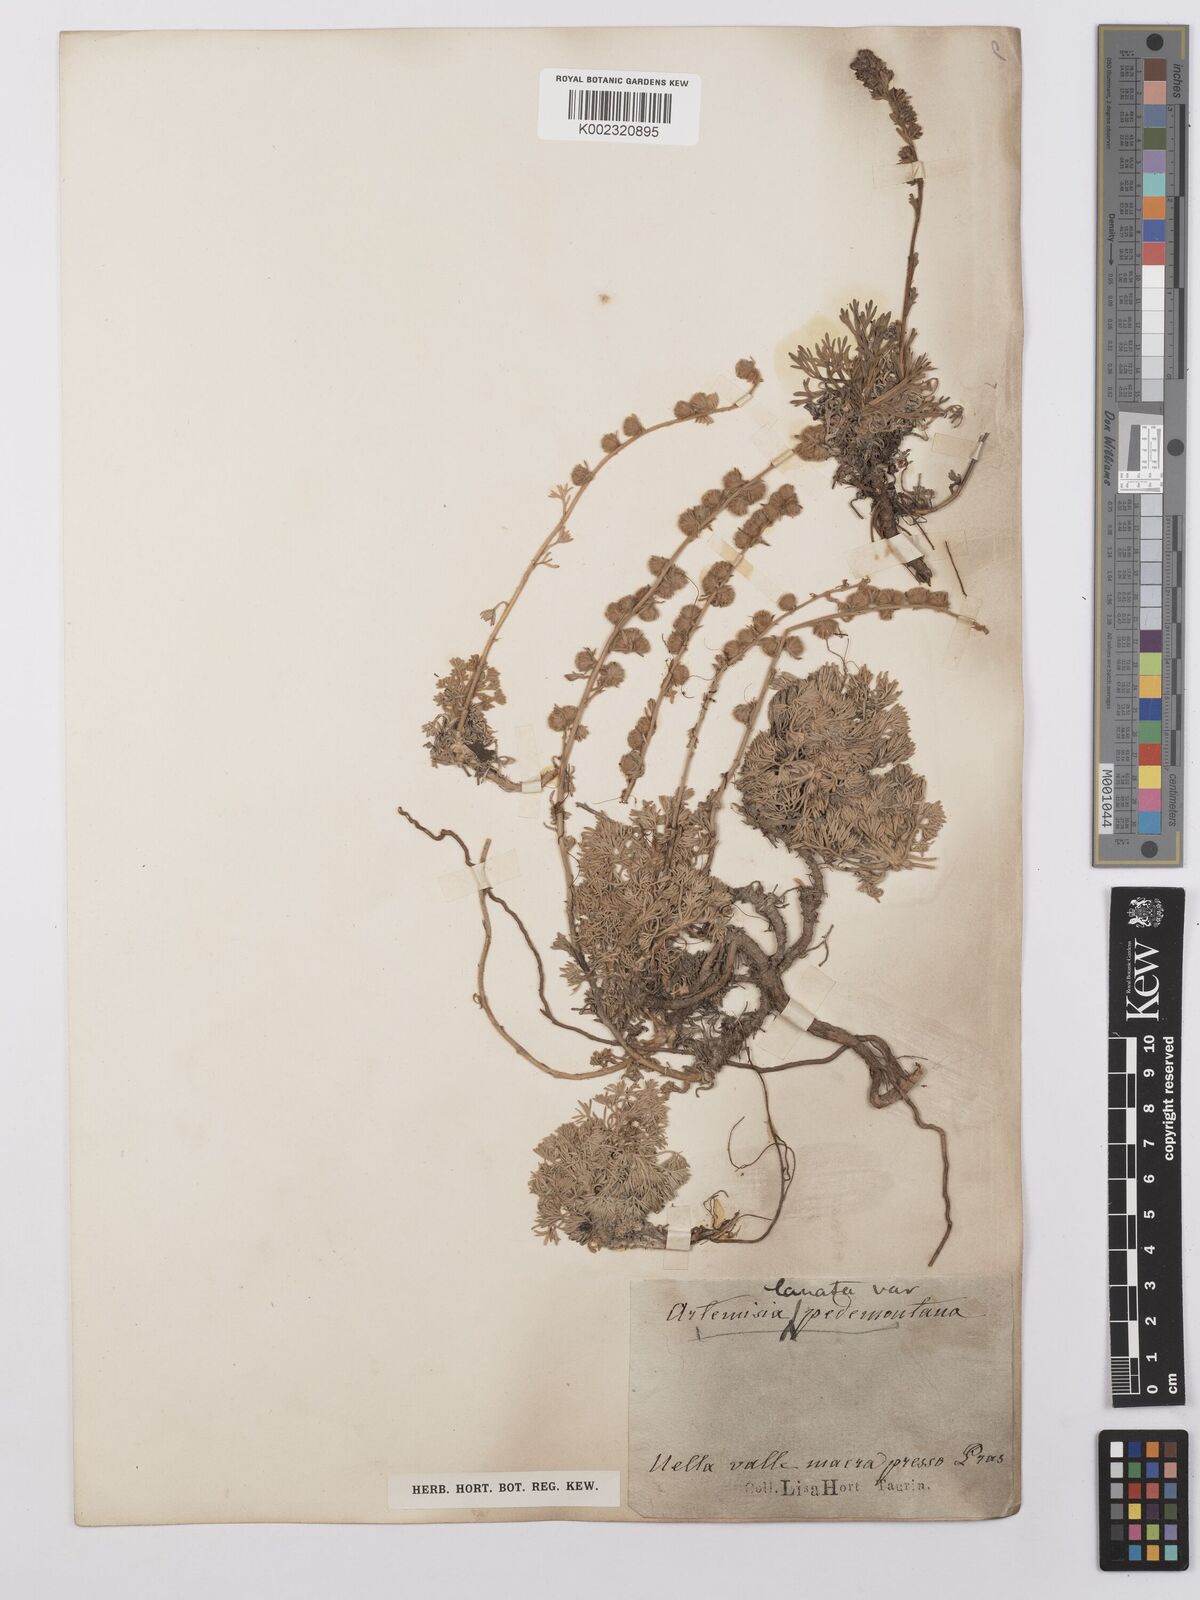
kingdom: Plantae
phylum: Tracheophyta
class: Magnoliopsida
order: Asterales
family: Asteraceae
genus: Artemisia
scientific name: Artemisia pedemontana
